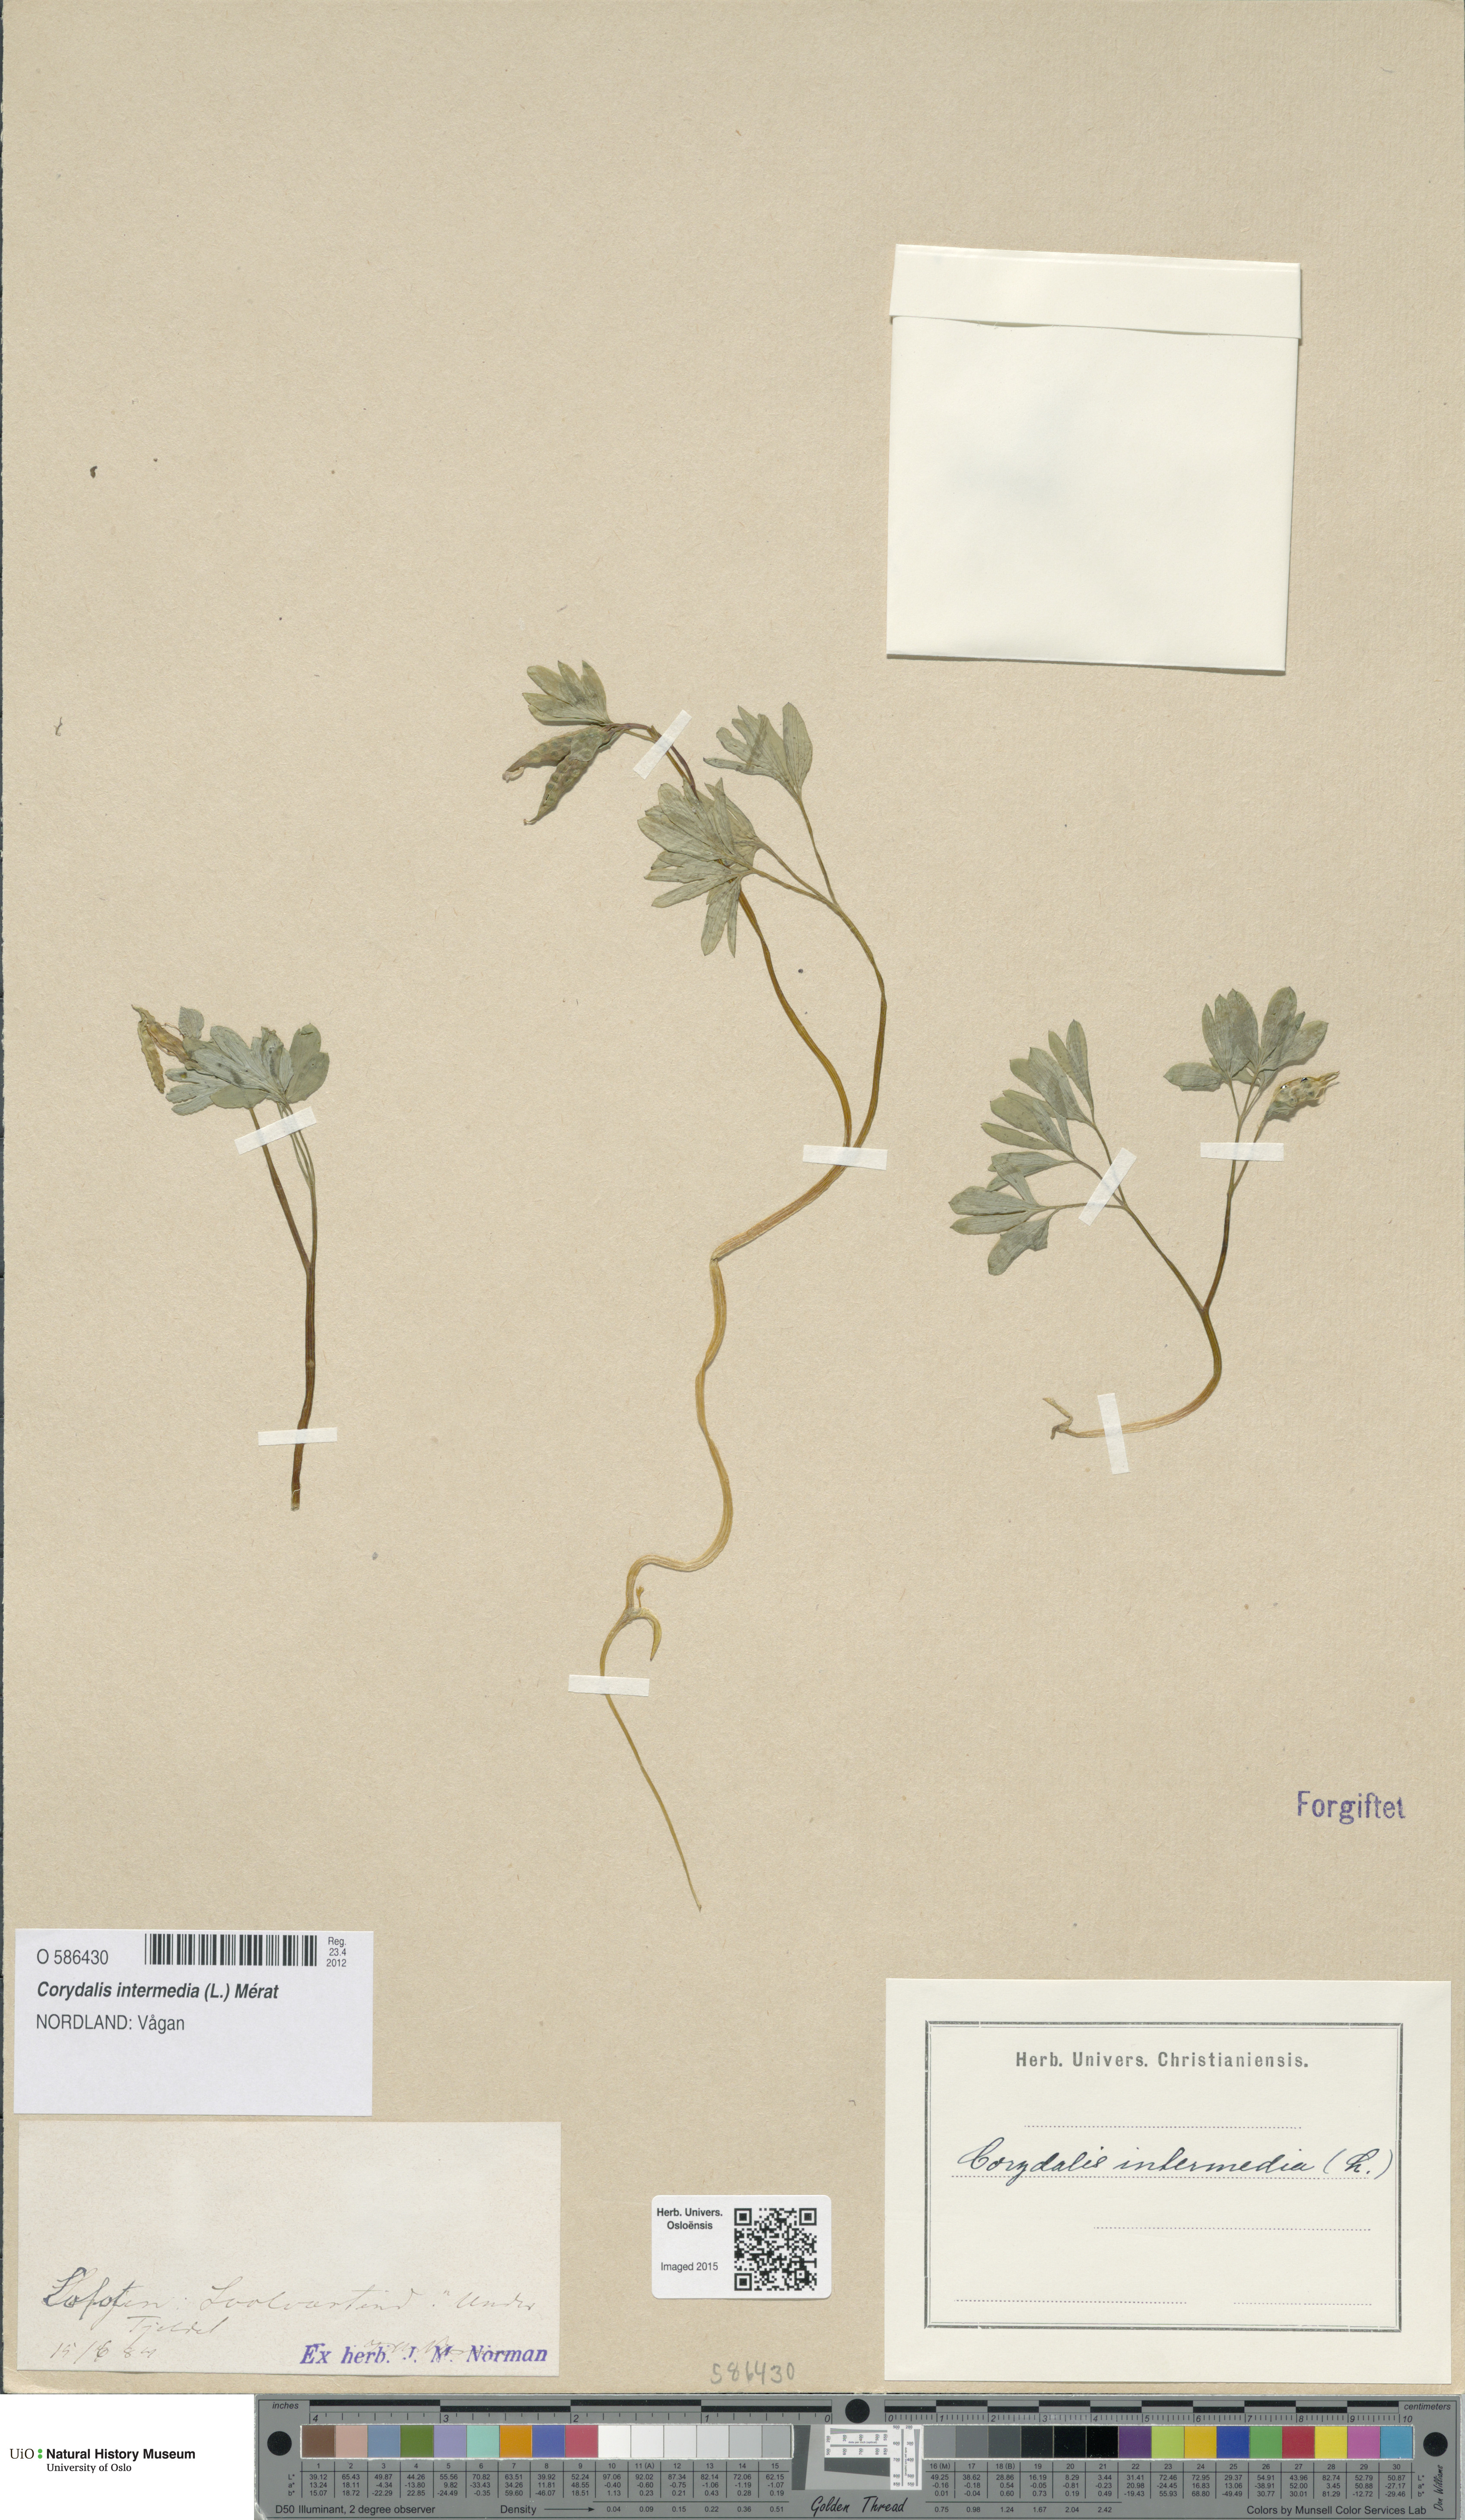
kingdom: Plantae
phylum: Tracheophyta
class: Magnoliopsida
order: Ranunculales
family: Papaveraceae
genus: Corydalis
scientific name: Corydalis intermedia
